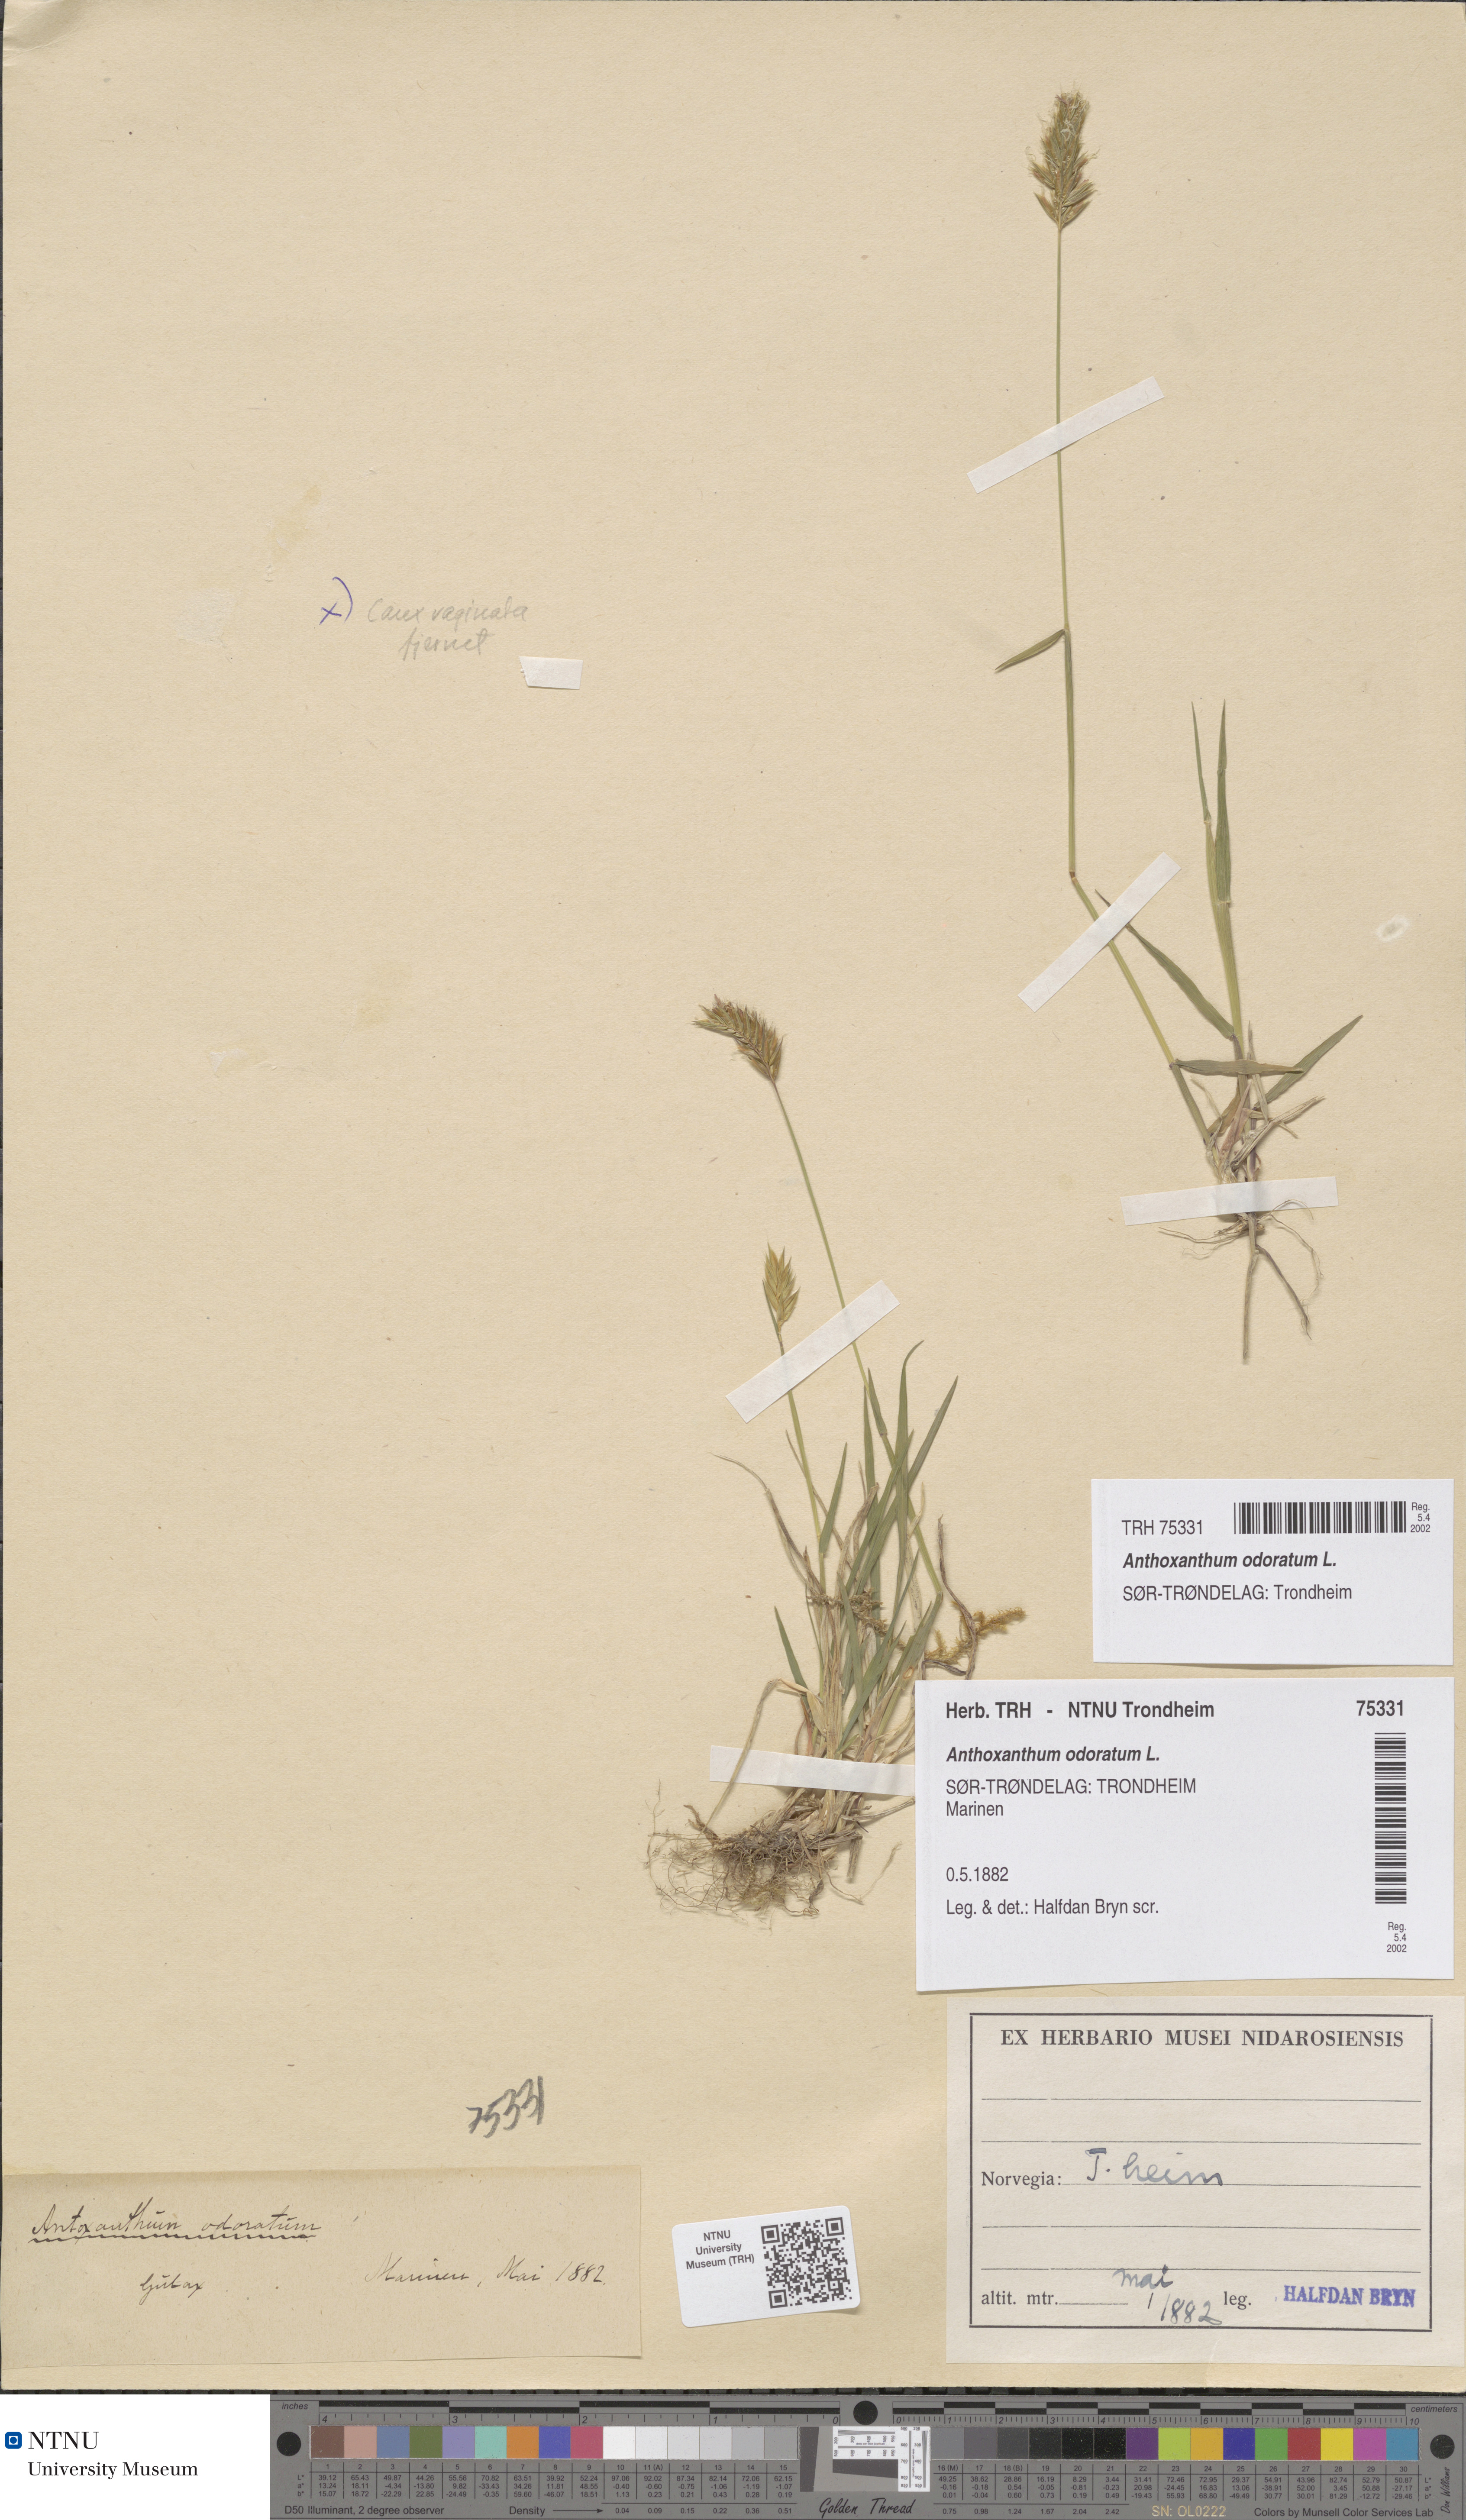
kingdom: Plantae
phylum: Tracheophyta
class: Liliopsida
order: Poales
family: Poaceae
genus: Anthoxanthum
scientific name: Anthoxanthum odoratum
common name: Sweet vernalgrass
